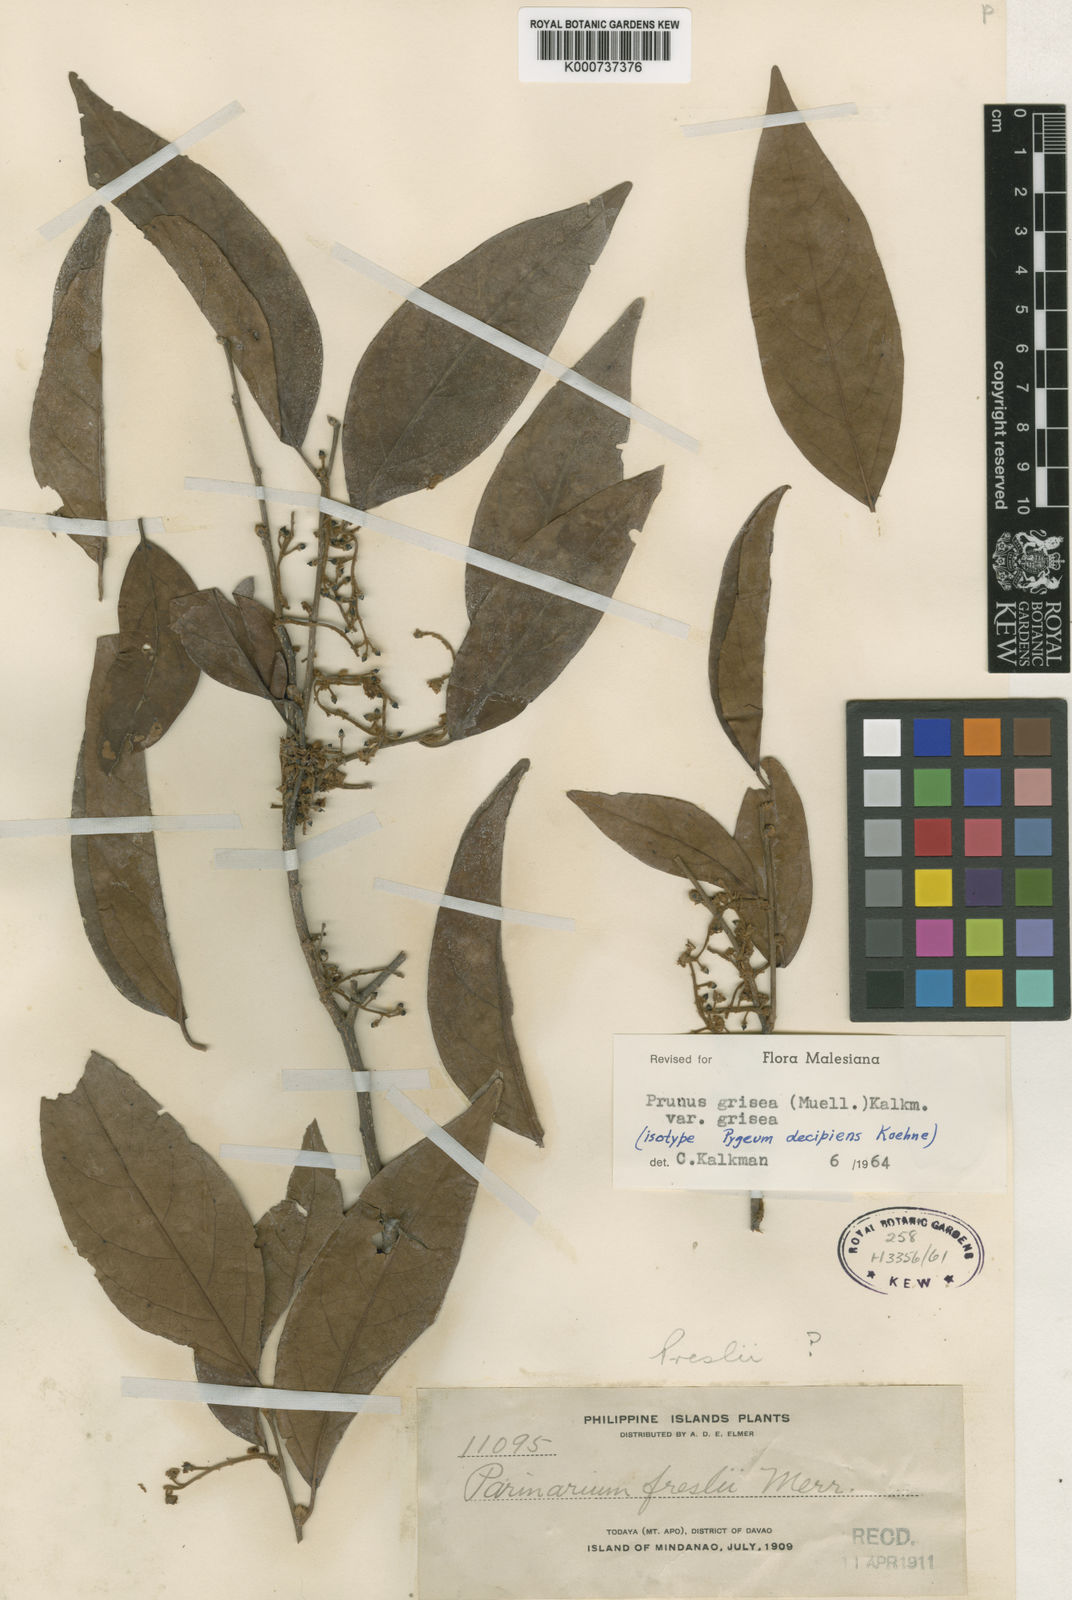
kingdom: Plantae
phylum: Tracheophyta
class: Magnoliopsida
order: Rosales
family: Rosaceae
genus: Prunus
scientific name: Prunus
